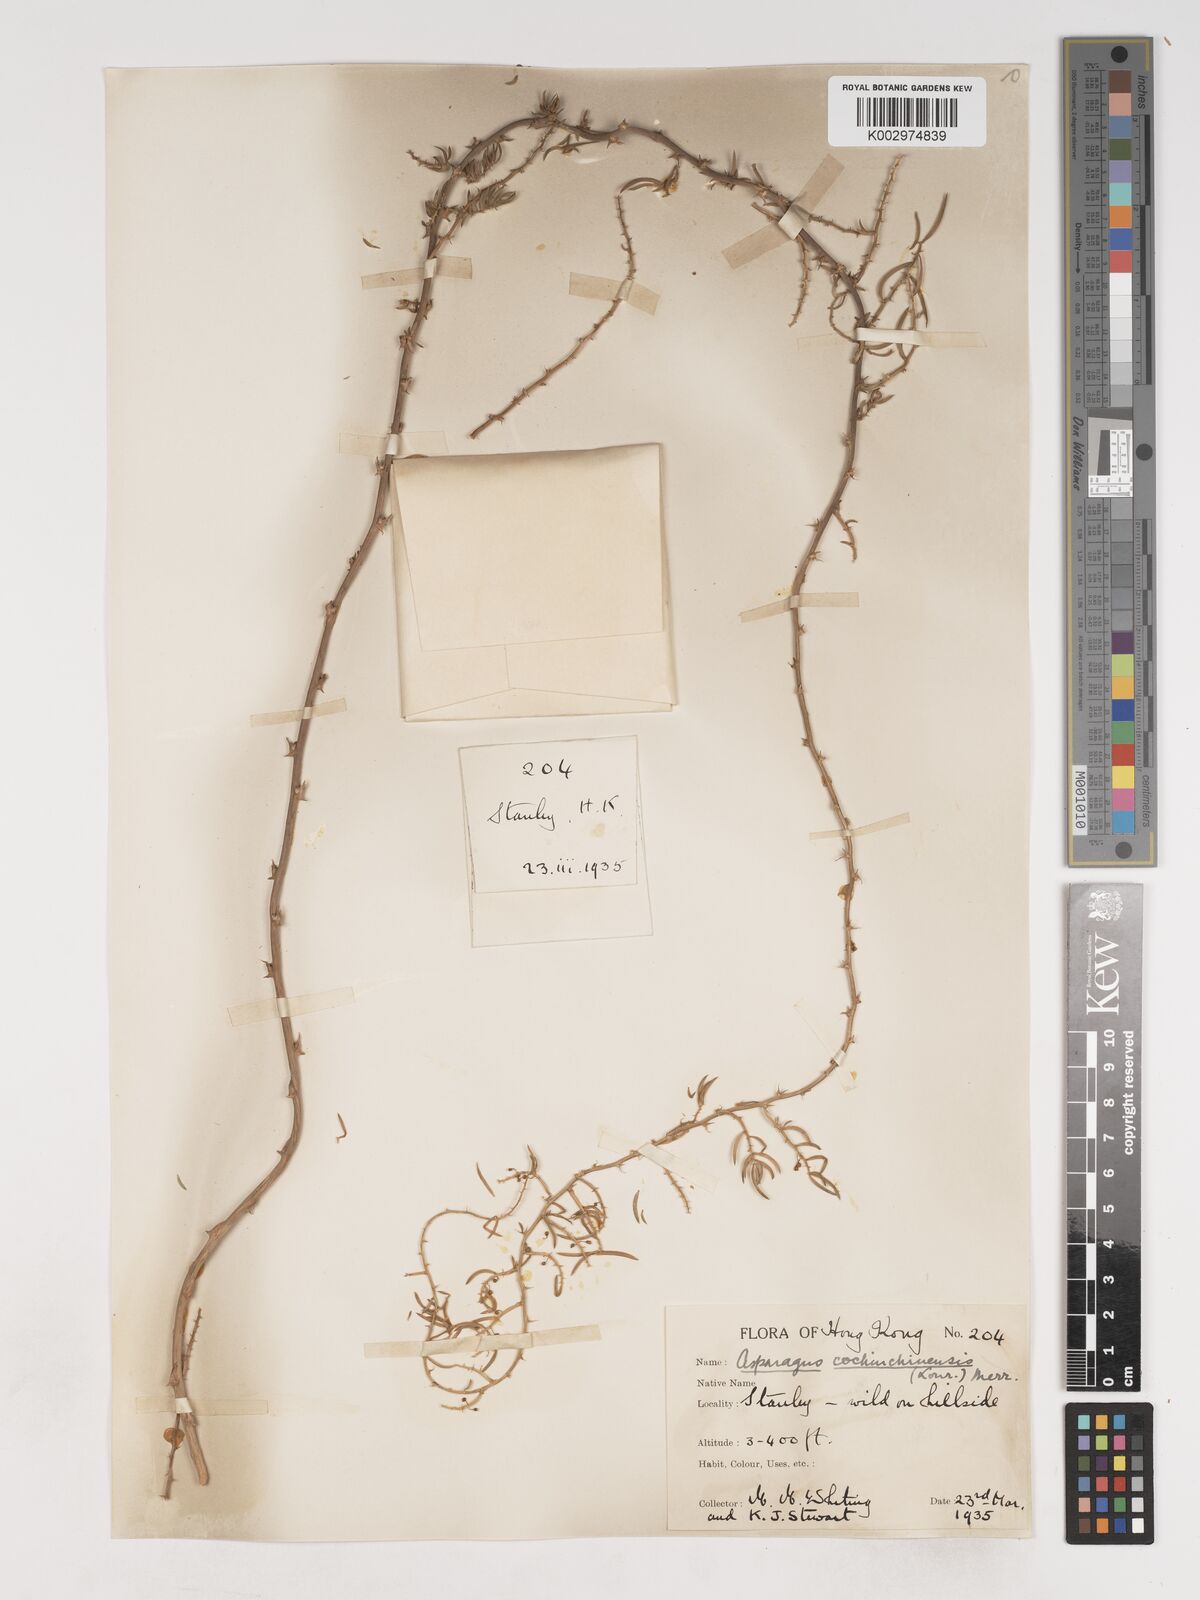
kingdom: Plantae
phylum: Tracheophyta
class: Liliopsida
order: Asparagales
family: Asparagaceae
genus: Asparagus
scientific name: Asparagus cochinchinensis
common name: Chinese asparagus
